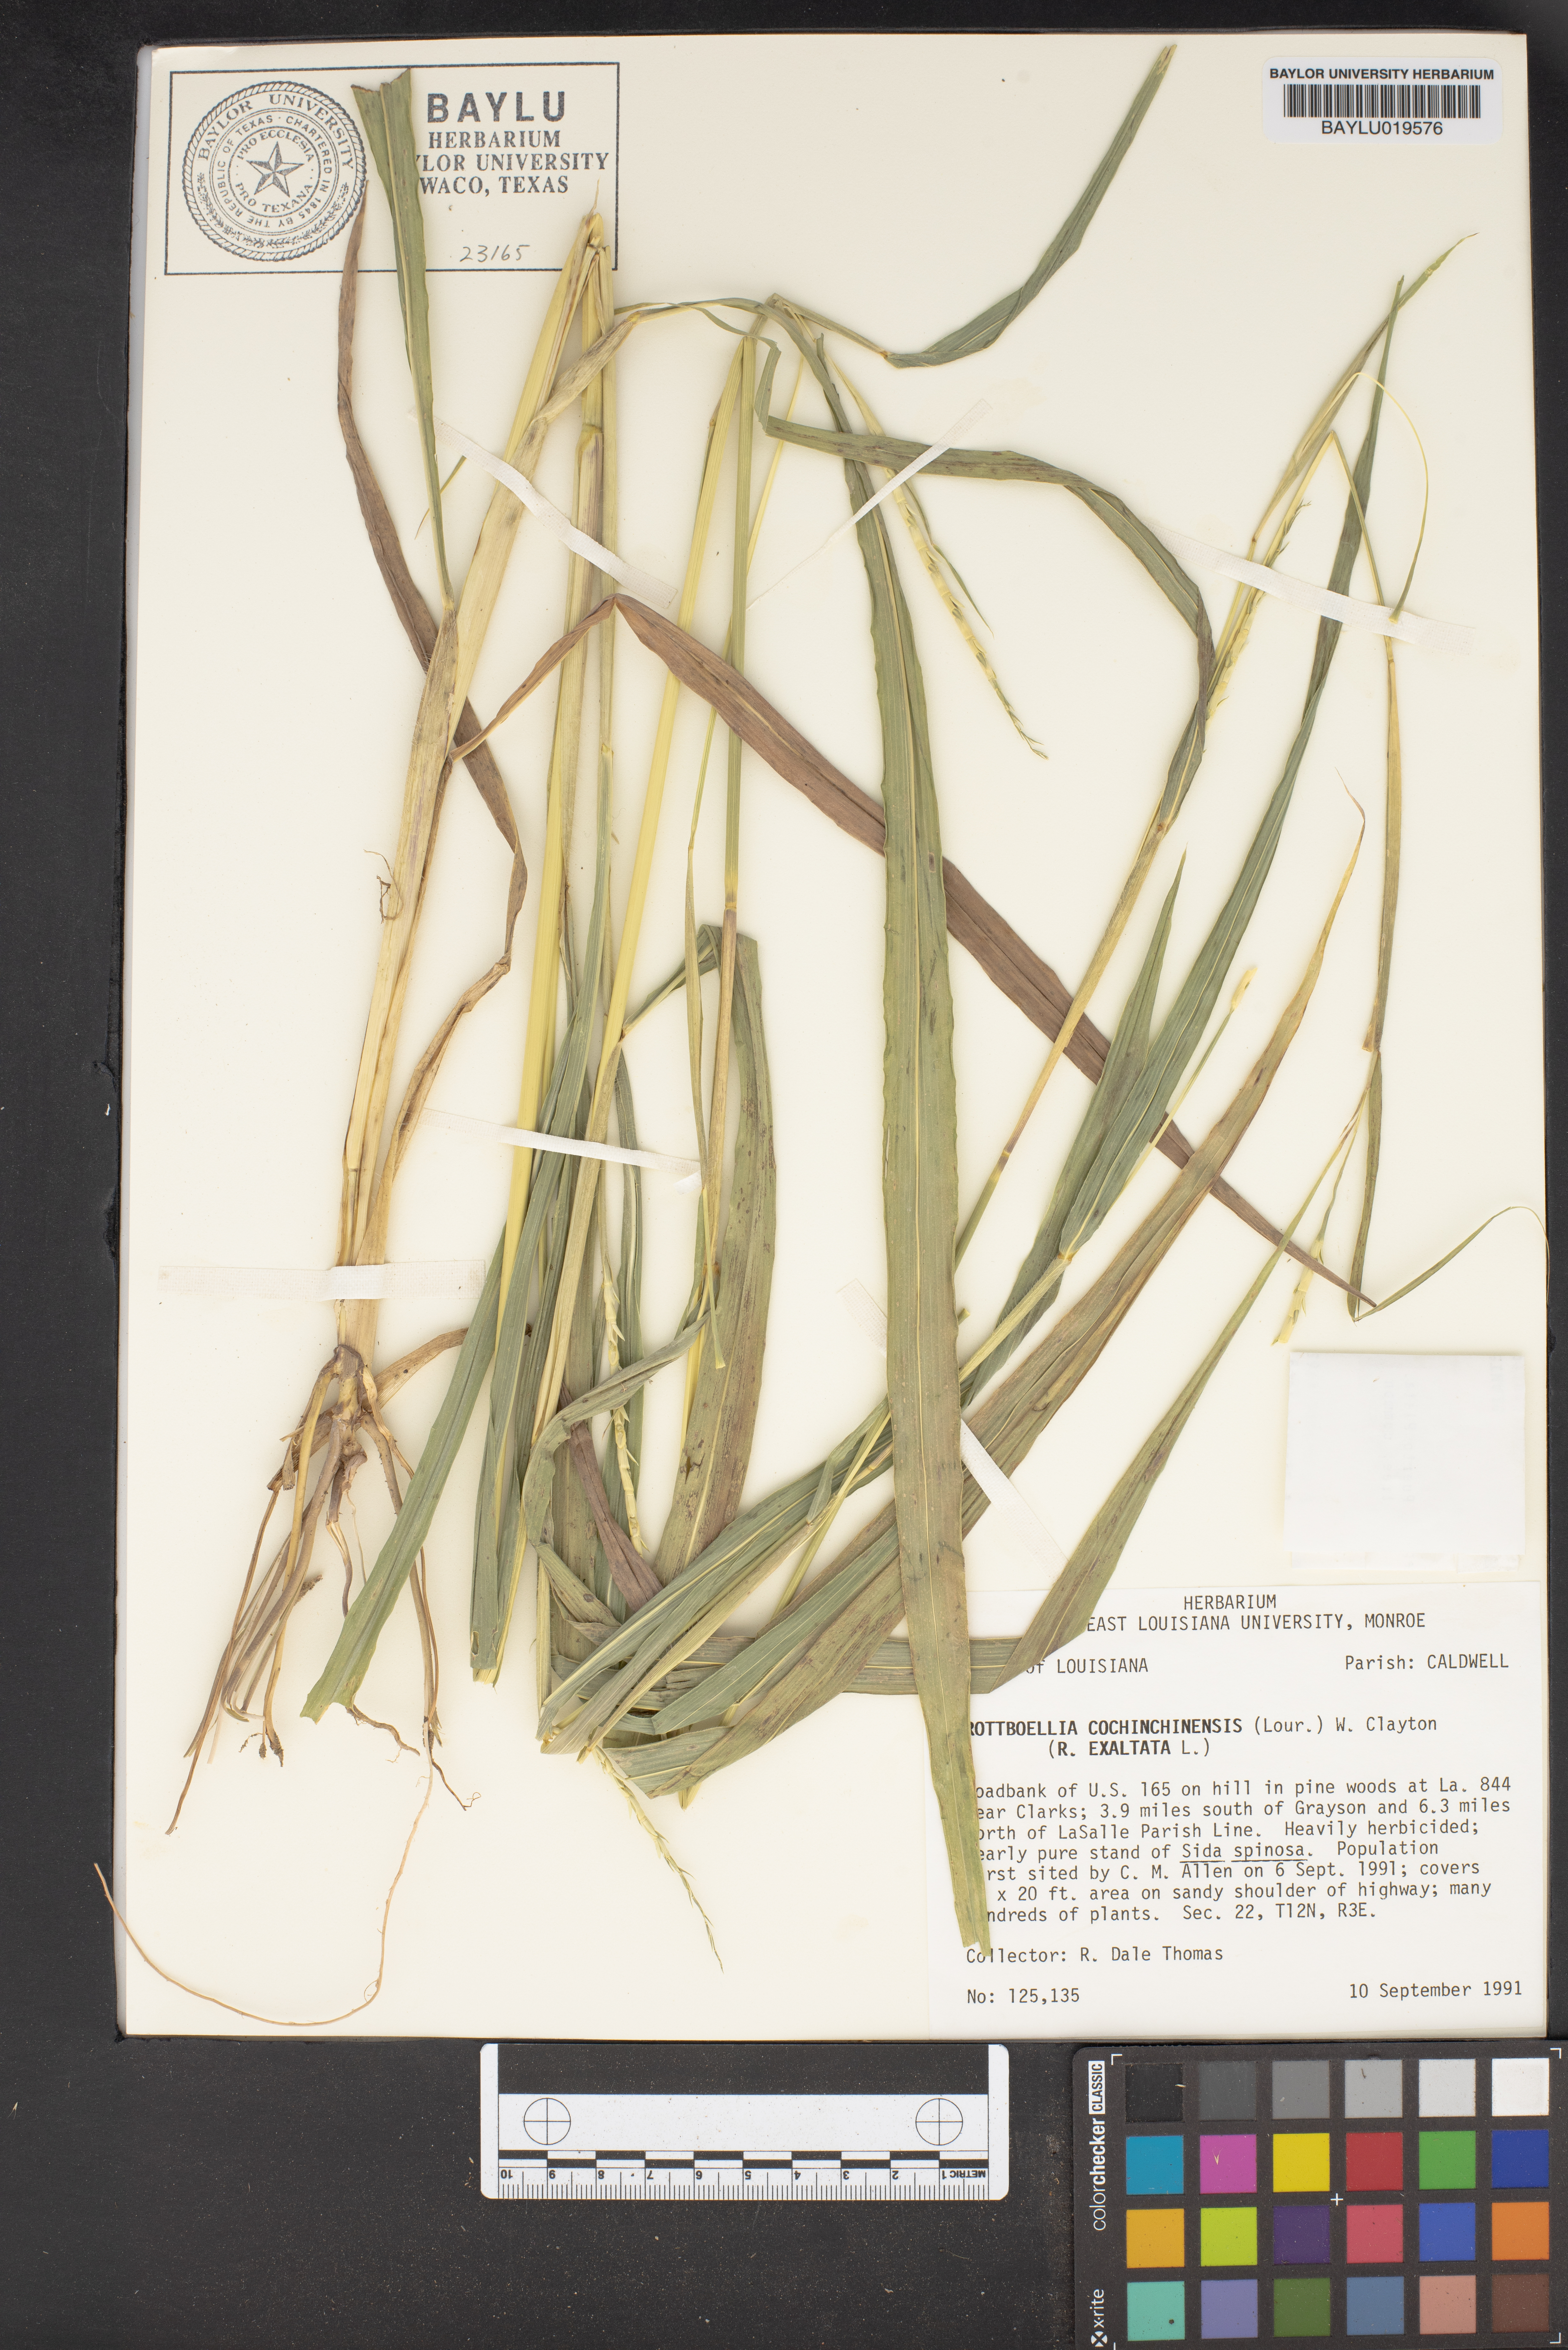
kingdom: Plantae
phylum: Tracheophyta
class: Liliopsida
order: Poales
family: Poaceae
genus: Rottboellia
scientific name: Rottboellia cochinchinensis
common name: Itchgrass
